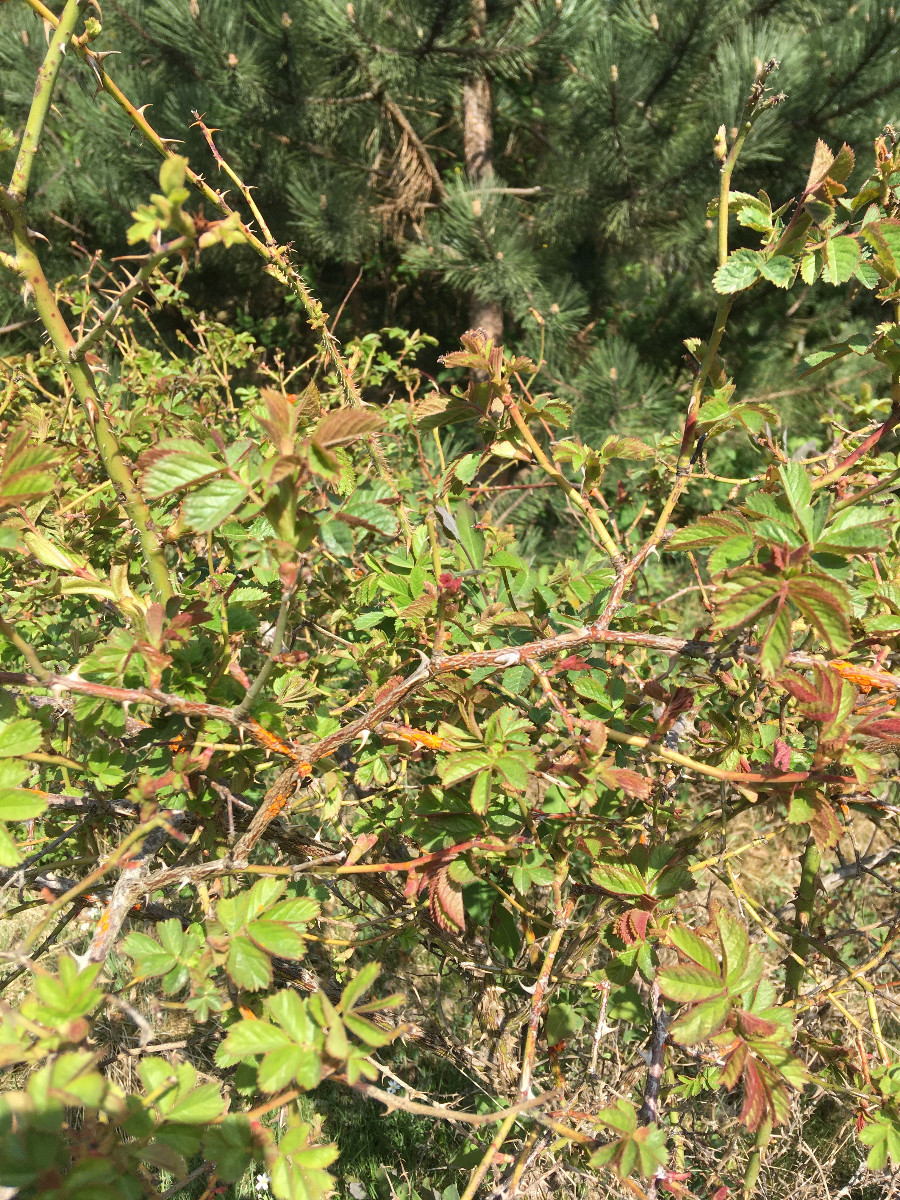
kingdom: Fungi
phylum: Basidiomycota
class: Pucciniomycetes
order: Pucciniales
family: Phragmidiaceae
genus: Phragmidium
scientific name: Phragmidium
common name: flercellerust
